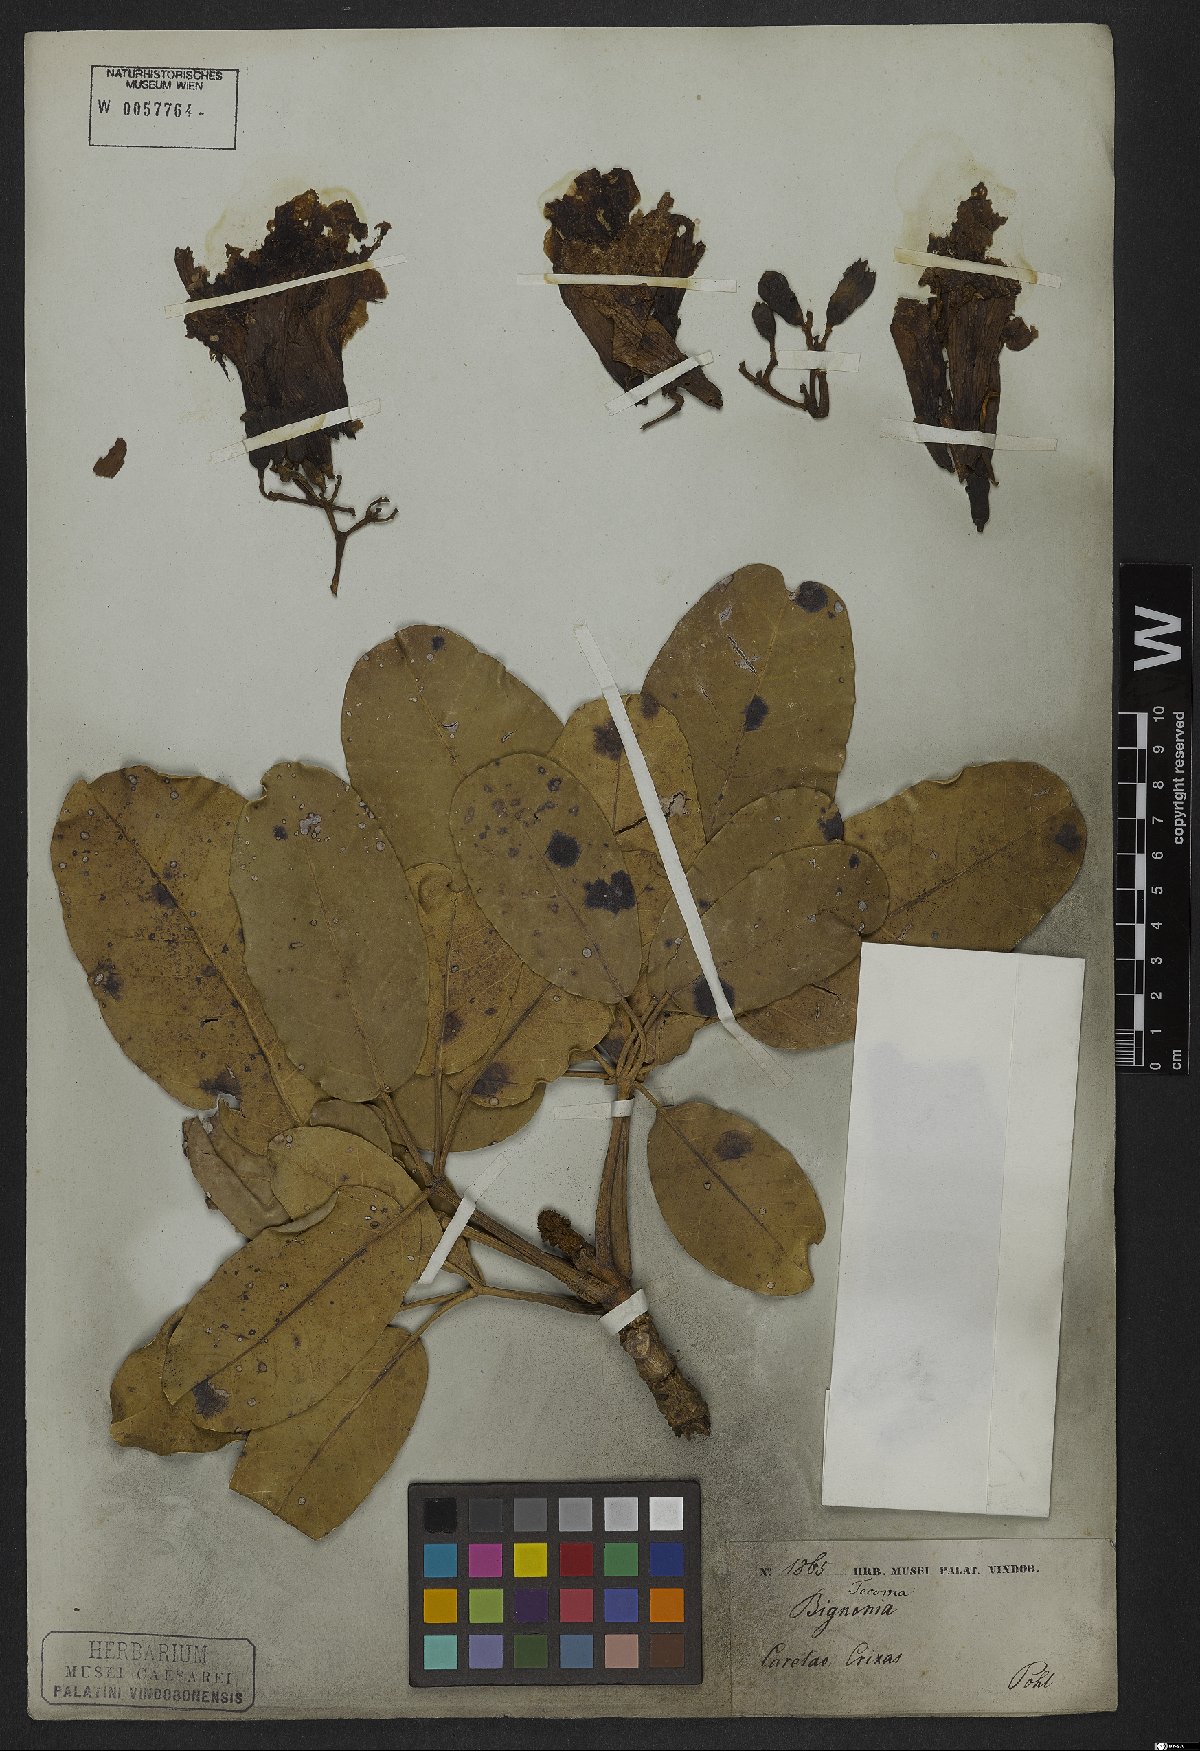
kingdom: Plantae
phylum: Tracheophyta
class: Magnoliopsida
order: Lamiales
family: Bignoniaceae
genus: Tabebuia
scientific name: Tabebuia aurea
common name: Caribbean trumpet-tree
